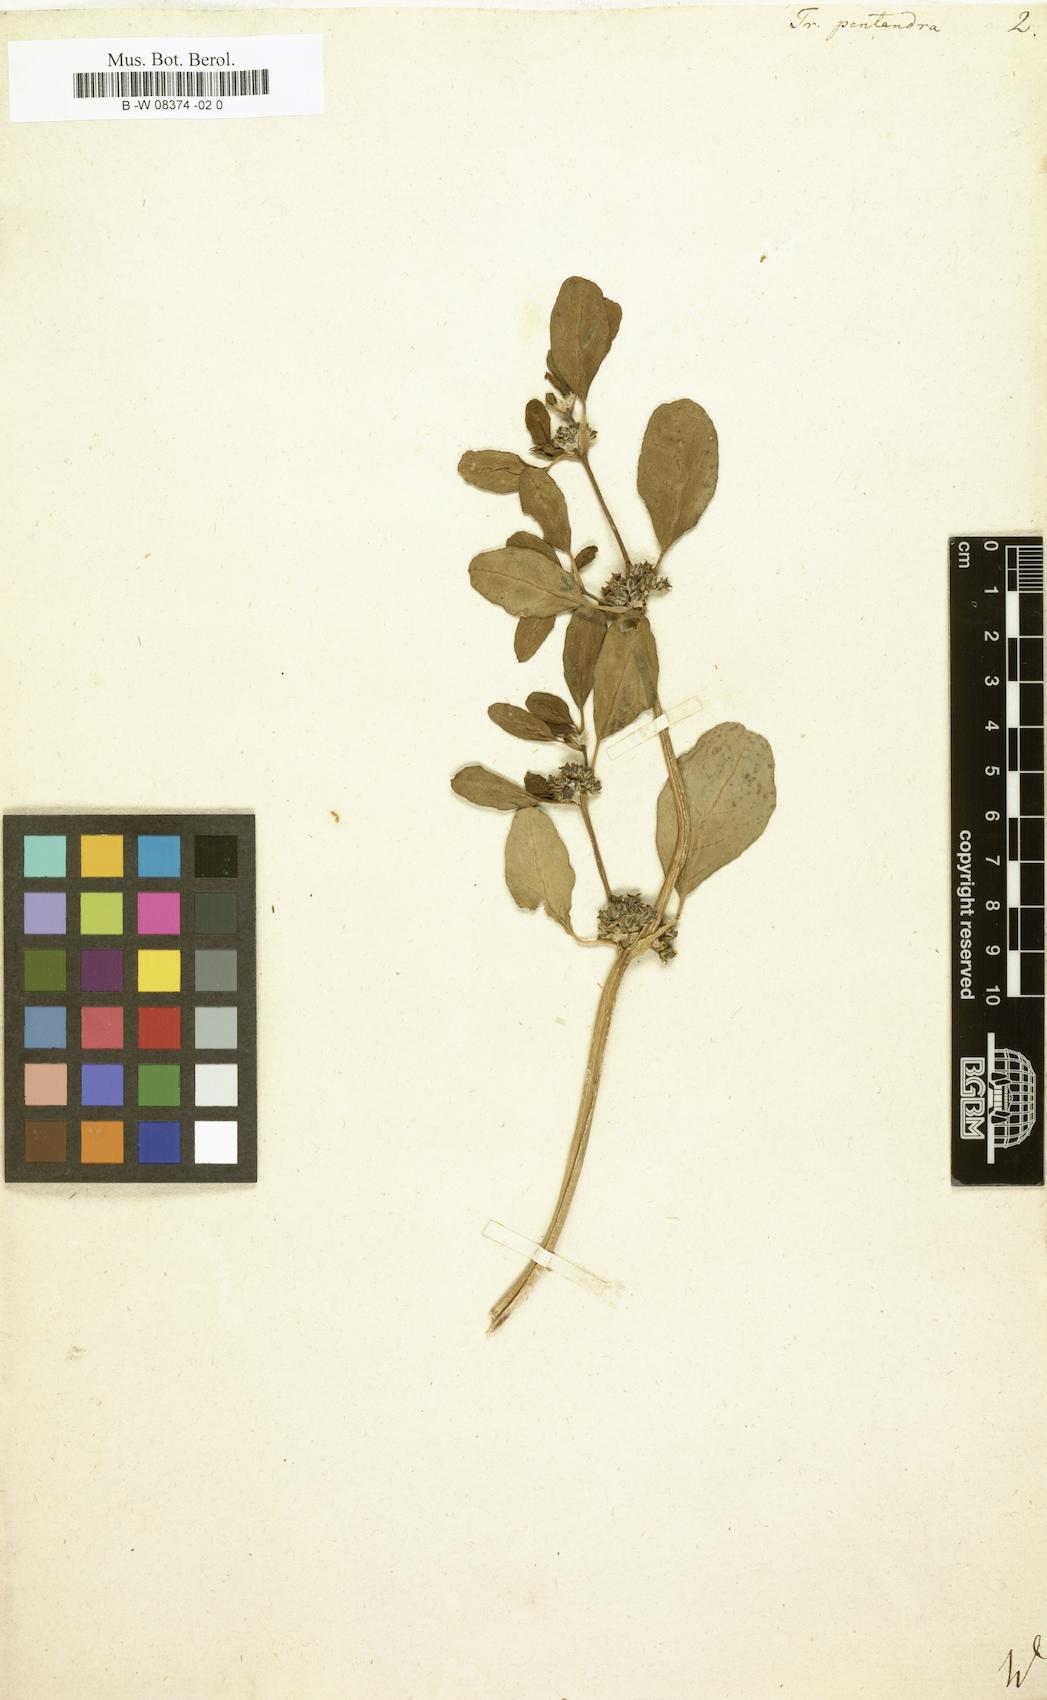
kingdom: Plantae
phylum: Tracheophyta
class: Magnoliopsida
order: Caryophyllales
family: Aizoaceae
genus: Zaleya
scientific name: Zaleya pentandra
